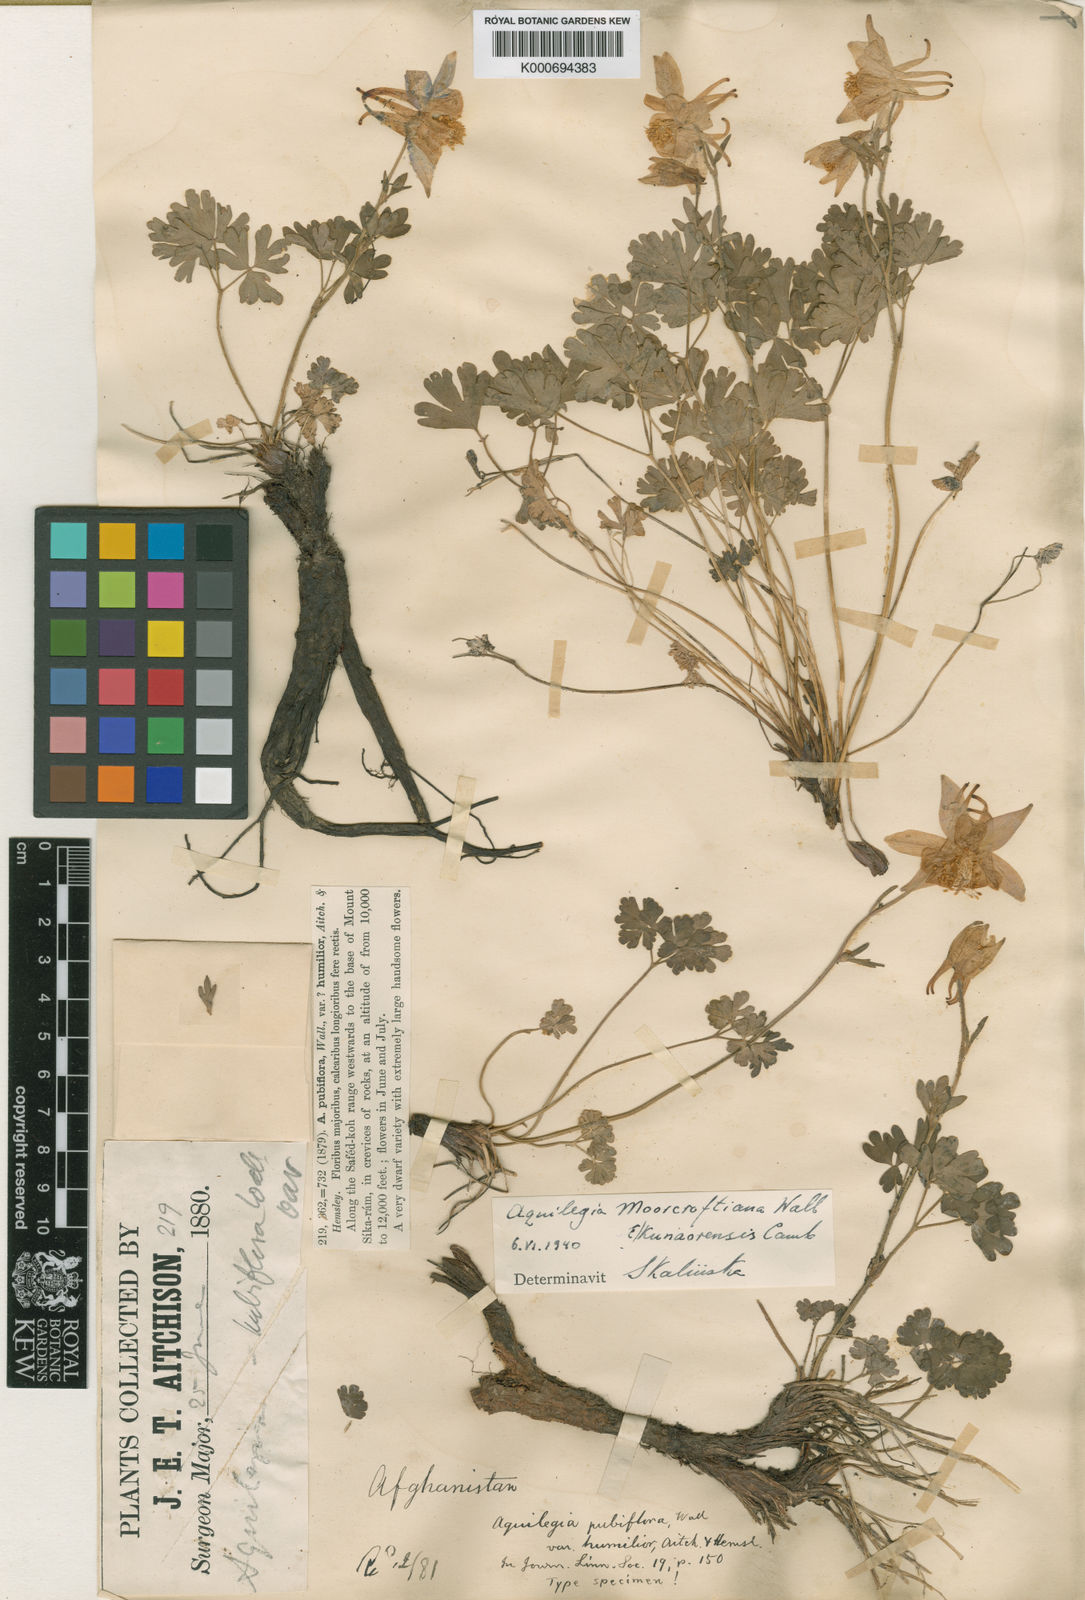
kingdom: Plantae
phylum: Tracheophyta
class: Magnoliopsida
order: Ranunculales
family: Ranunculaceae
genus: Aquilegia
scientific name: Aquilegia
